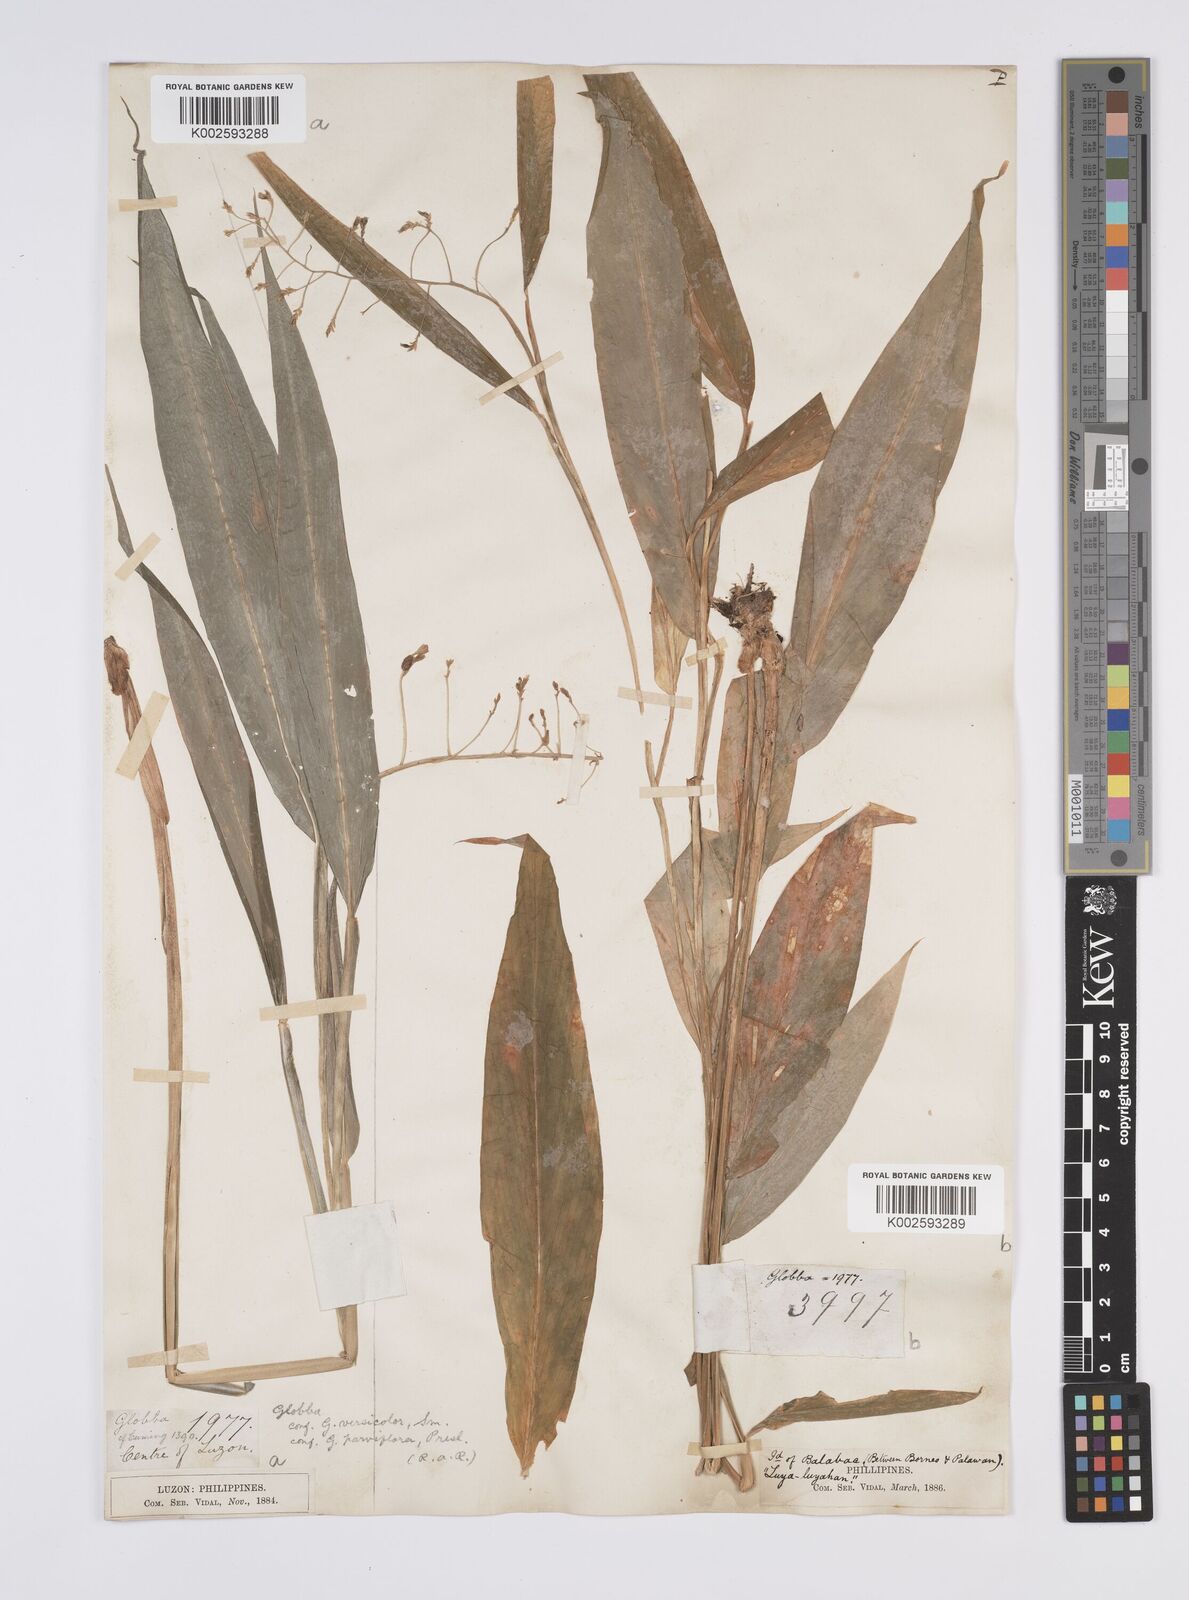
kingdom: Plantae
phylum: Tracheophyta
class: Liliopsida
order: Zingiberales
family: Zingiberaceae
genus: Globba
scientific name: Globba campsophylla
